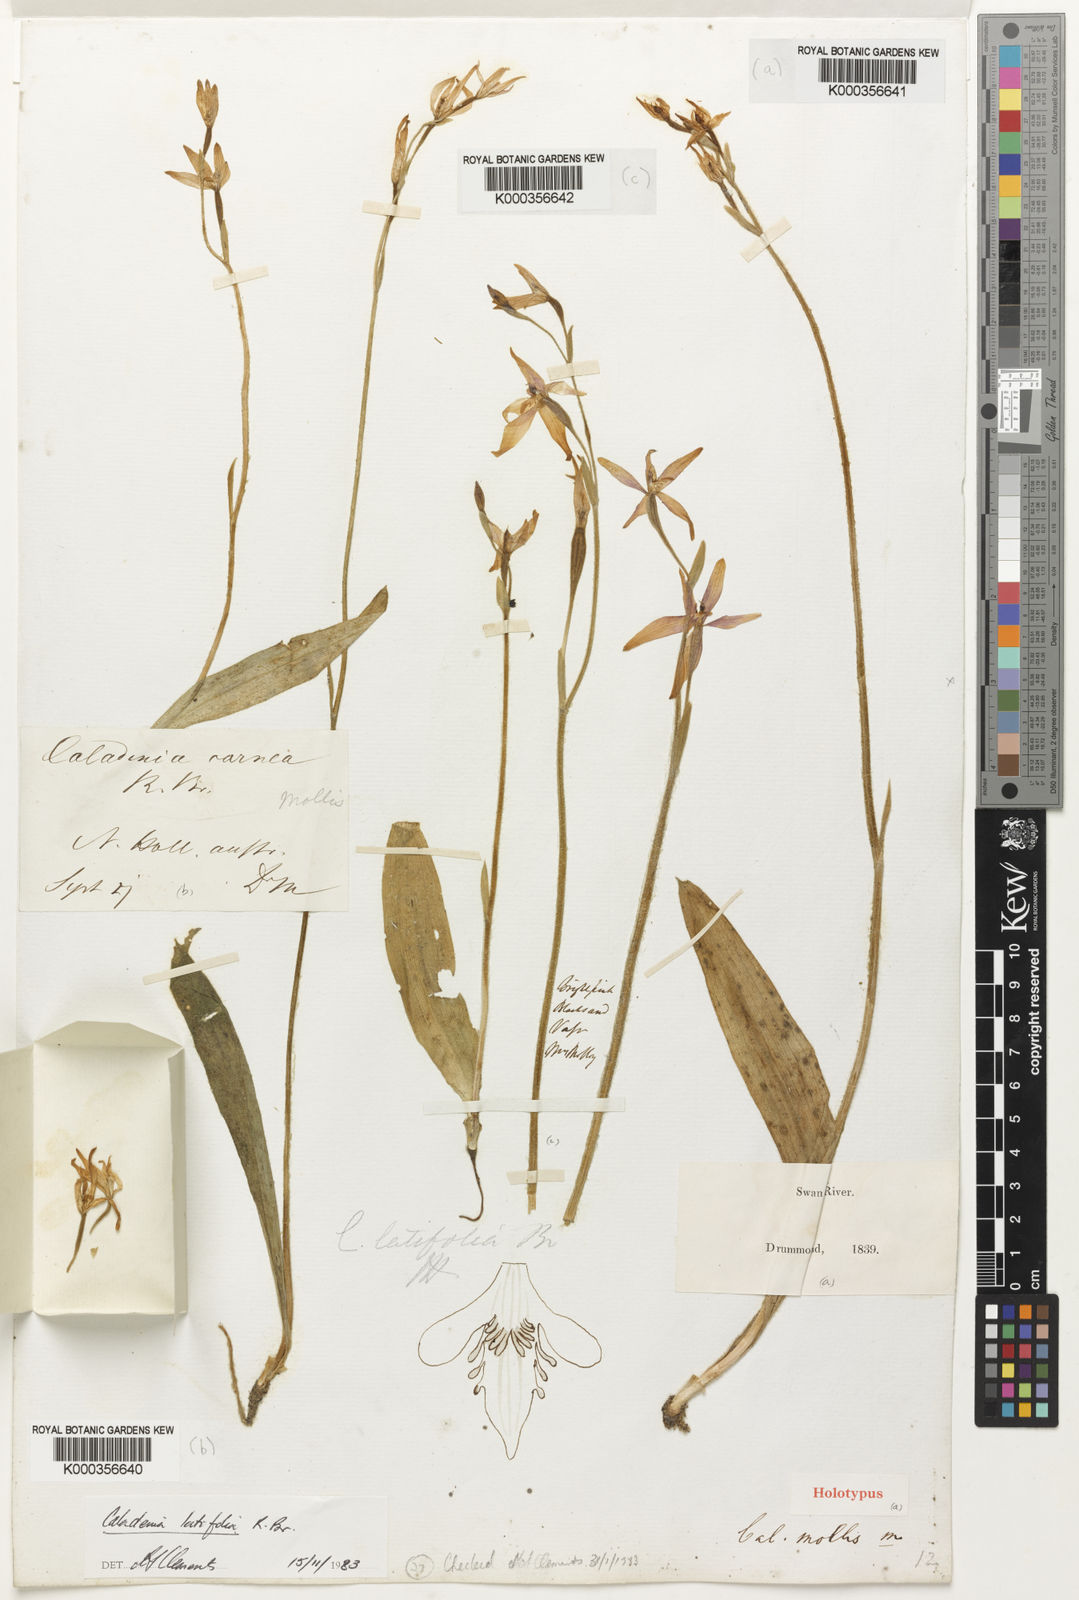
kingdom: Plantae
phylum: Tracheophyta
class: Liliopsida
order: Asparagales
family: Orchidaceae
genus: Caladenia
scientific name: Caladenia latifolia
